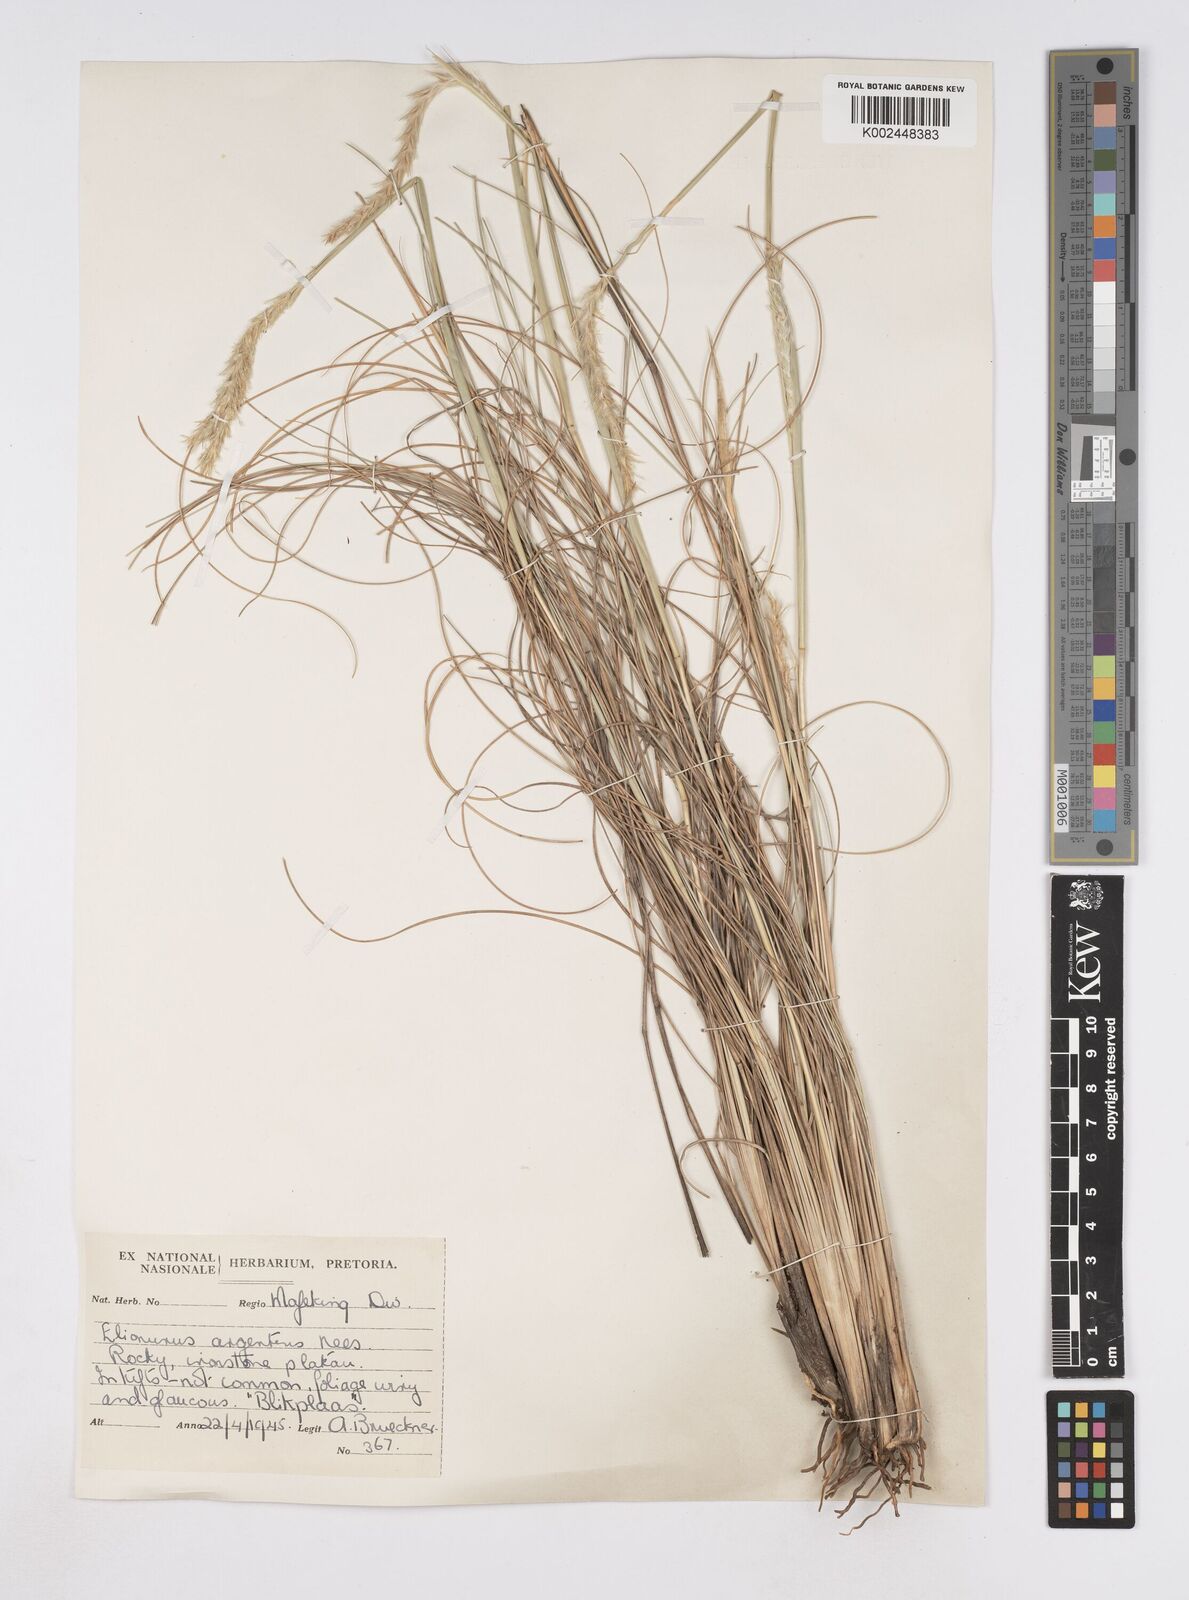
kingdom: Plantae
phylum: Tracheophyta
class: Liliopsida
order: Poales
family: Poaceae
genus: Elionurus
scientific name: Elionurus muticus
